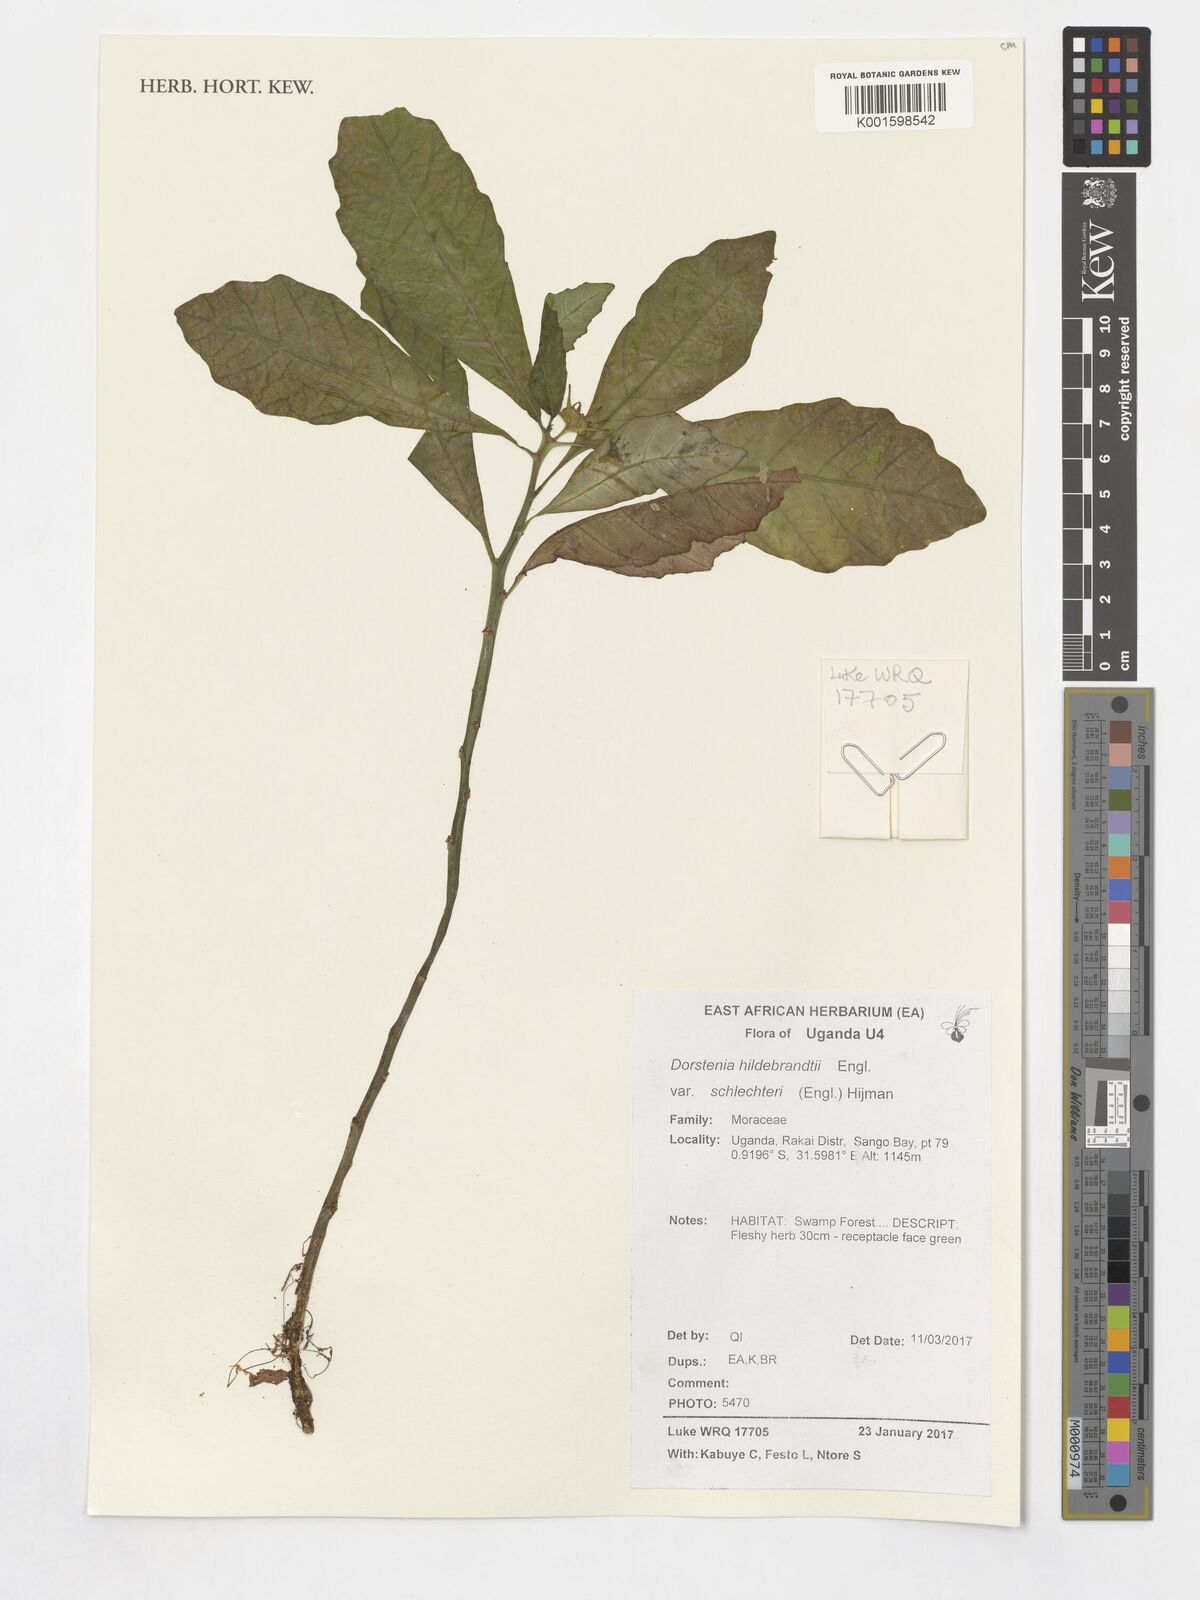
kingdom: Plantae
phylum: Tracheophyta
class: Magnoliopsida
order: Rosales
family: Moraceae
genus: Dorstenia
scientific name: Dorstenia hildebrandtii
